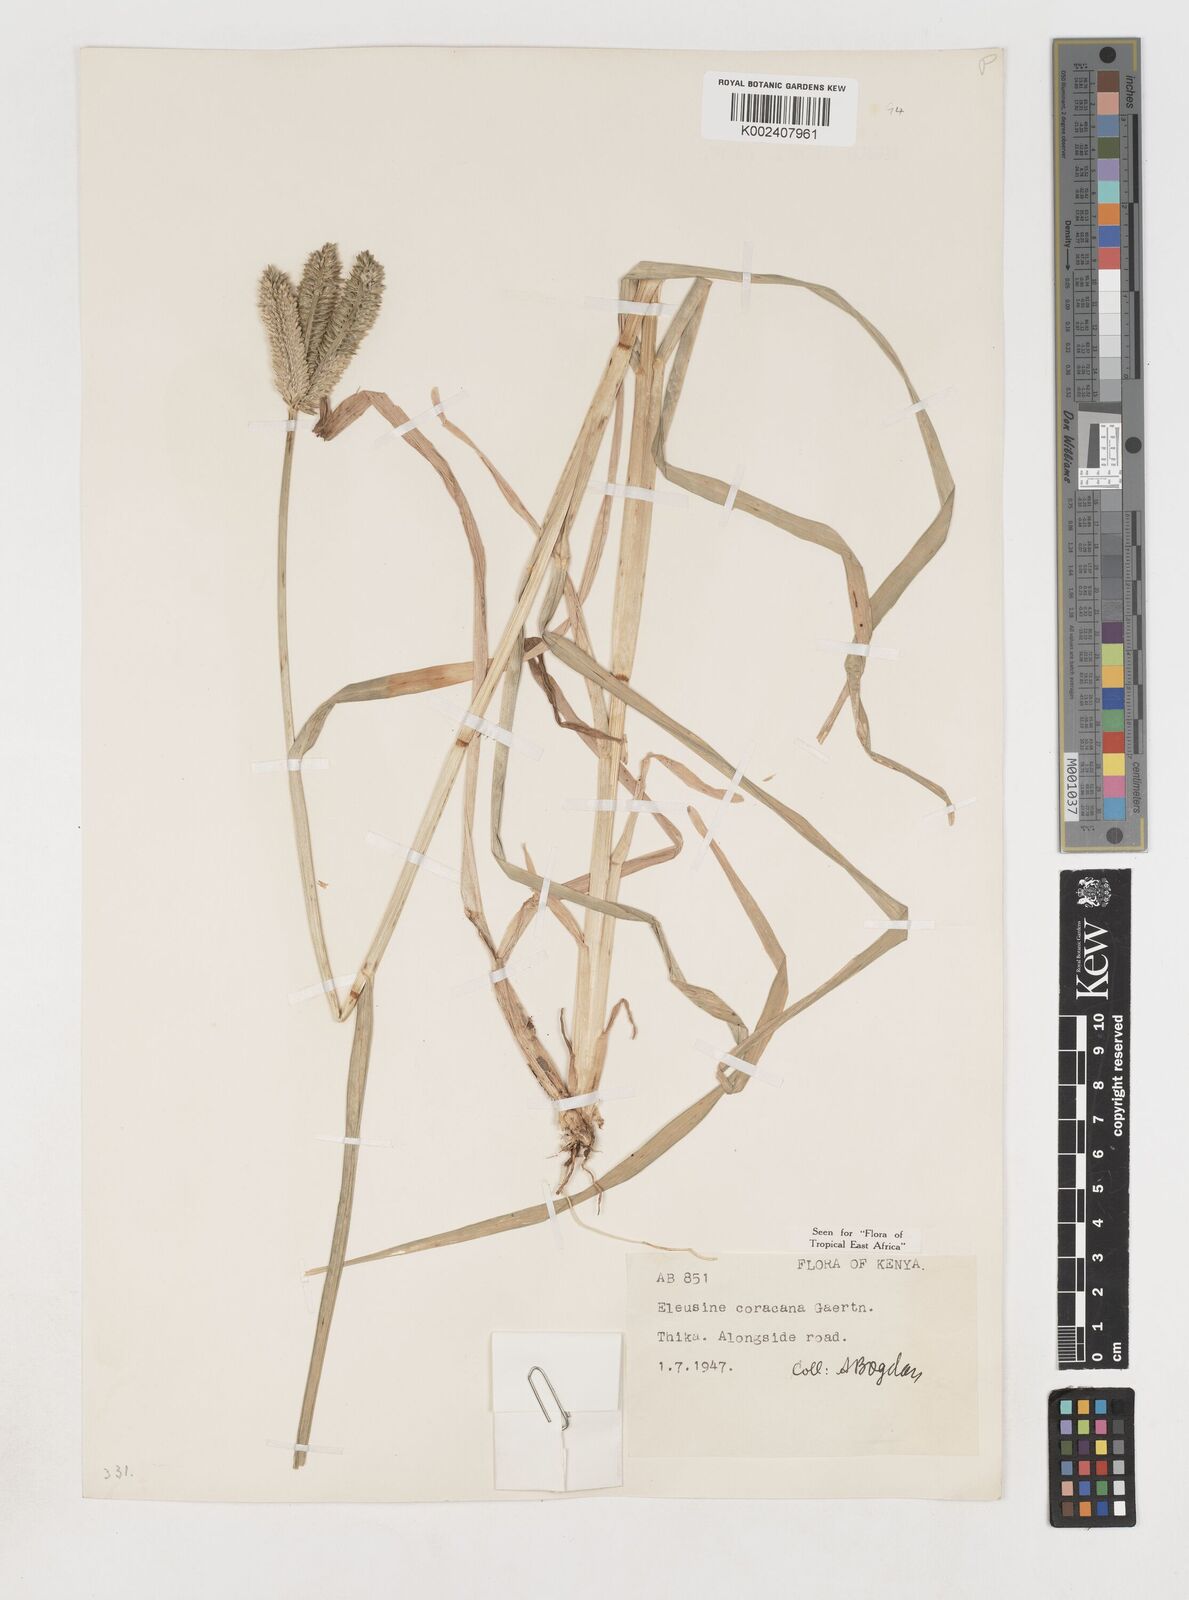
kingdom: Plantae
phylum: Tracheophyta
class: Liliopsida
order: Poales
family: Poaceae
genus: Eleusine
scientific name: Eleusine coracana
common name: Finger millet
